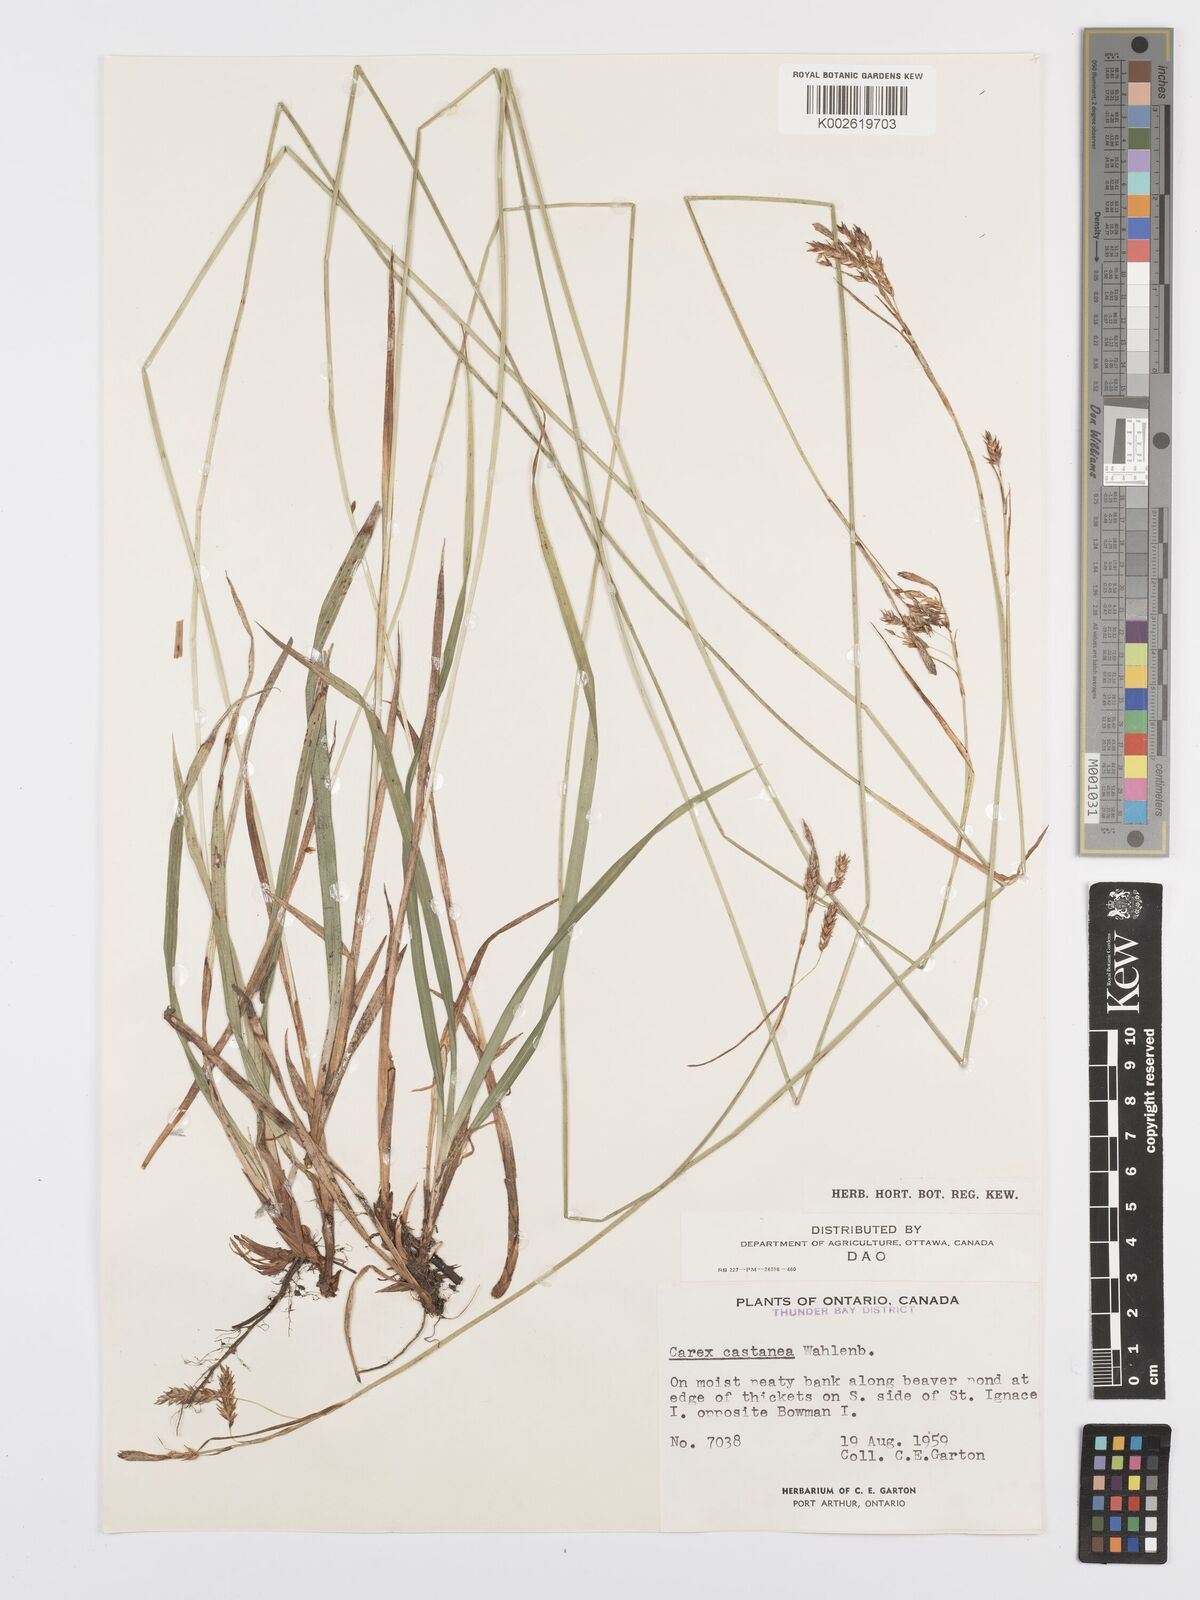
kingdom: Plantae
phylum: Tracheophyta
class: Liliopsida
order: Poales
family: Cyperaceae
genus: Carex
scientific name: Carex castanea
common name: Chestnut sedge
